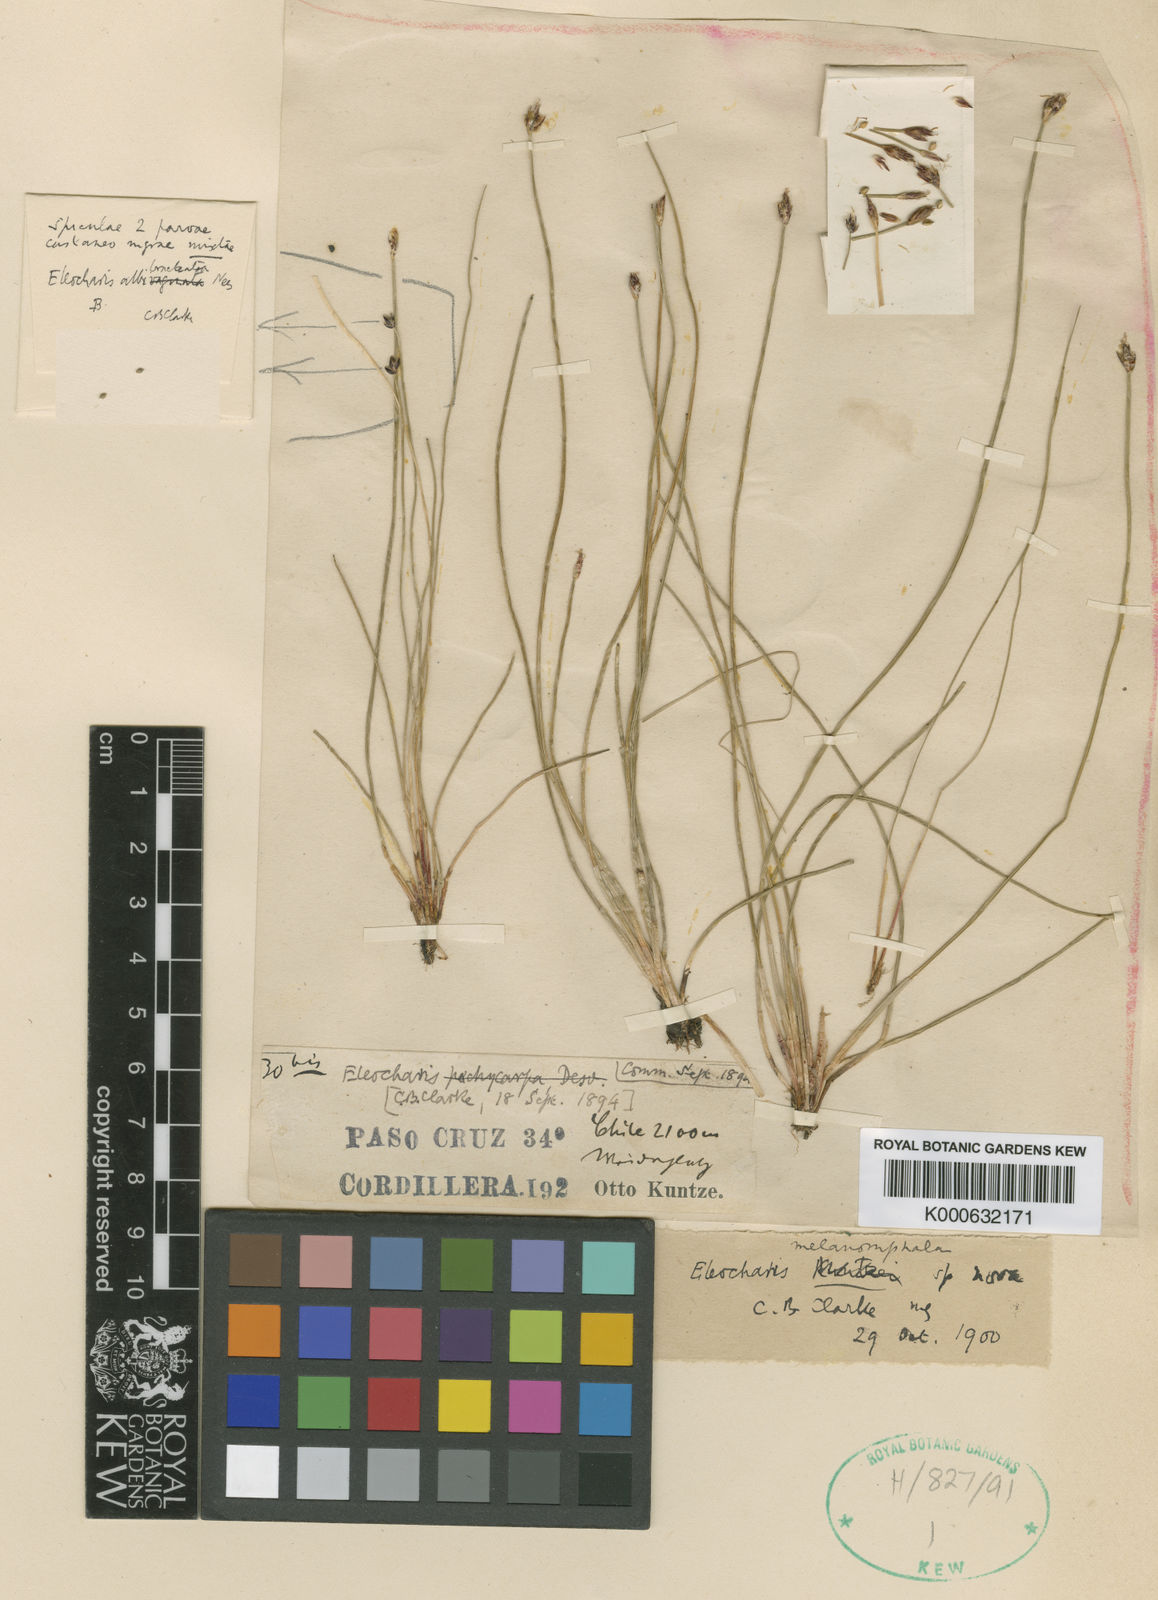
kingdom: Plantae
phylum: Tracheophyta
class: Liliopsida
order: Poales
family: Cyperaceae
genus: Eleocharis
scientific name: Eleocharis melanomphala
